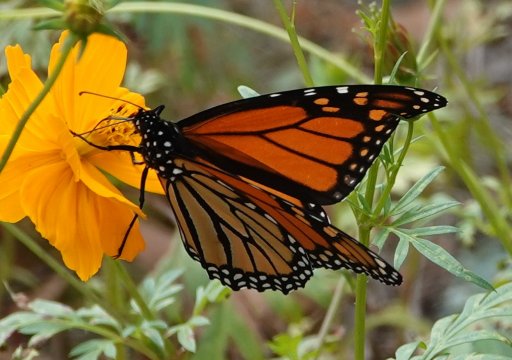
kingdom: Animalia
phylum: Arthropoda
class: Insecta
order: Lepidoptera
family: Nymphalidae
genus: Danaus
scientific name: Danaus plexippus
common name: Monarch
